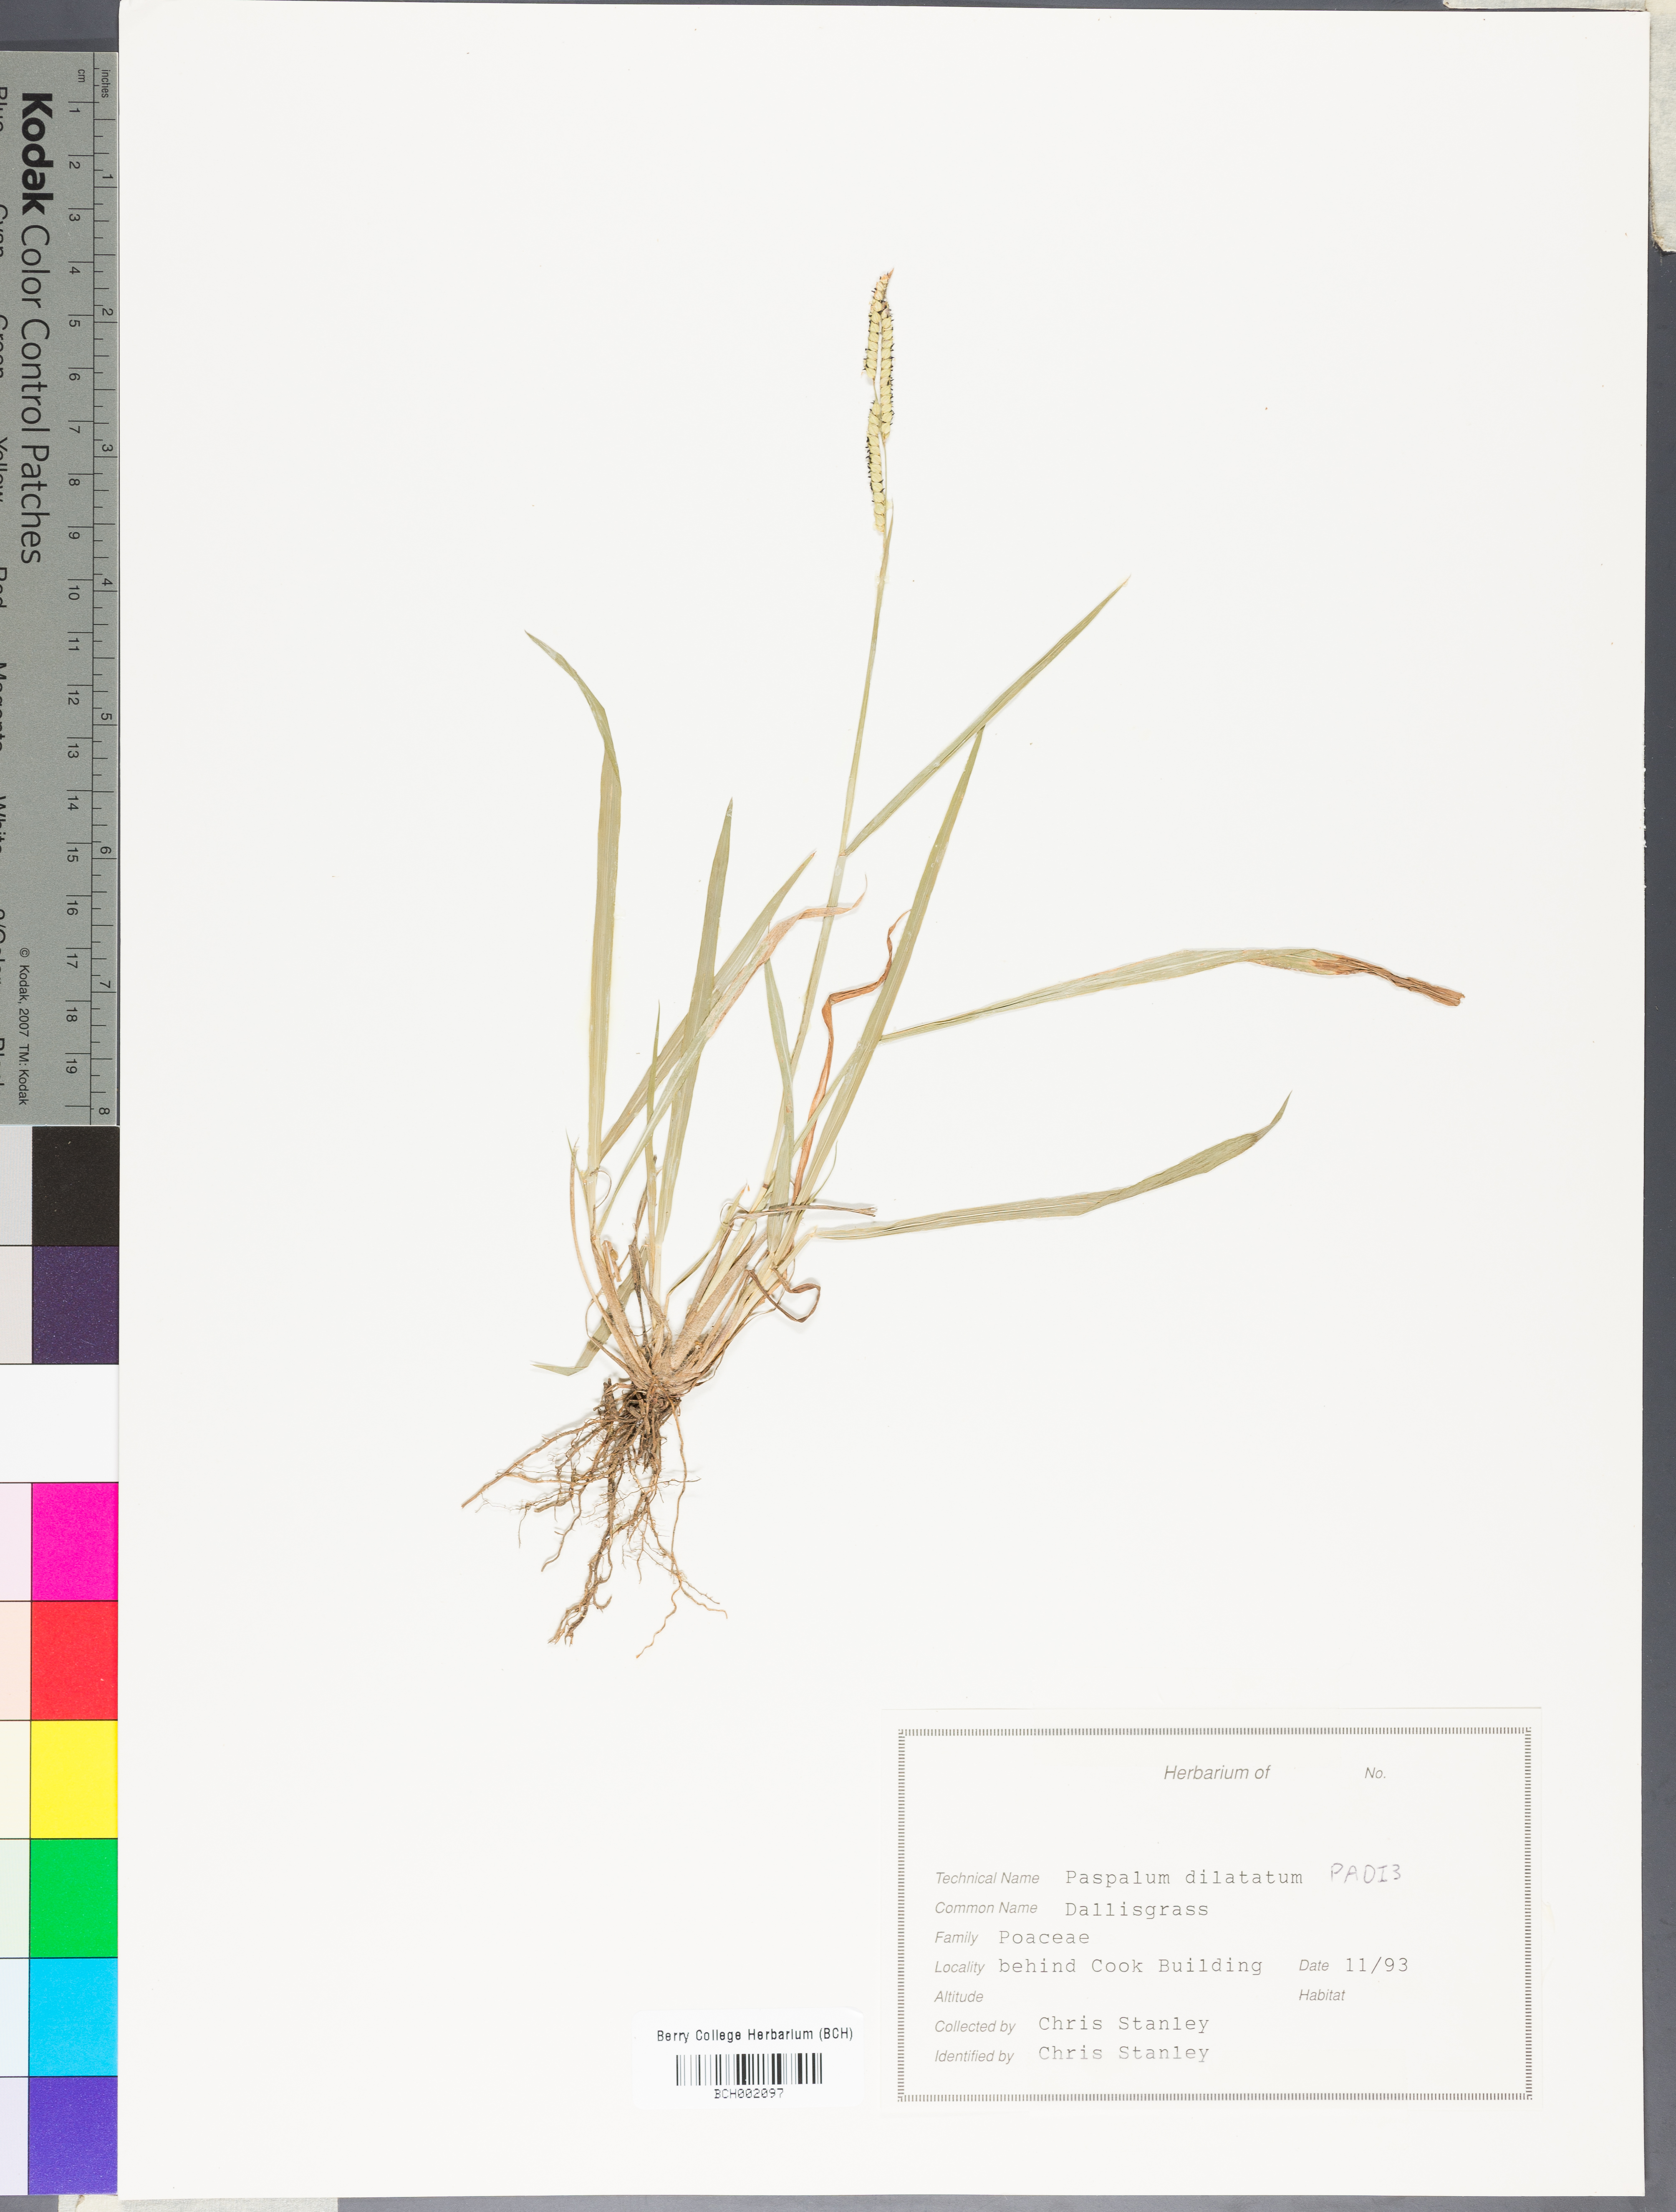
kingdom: Plantae
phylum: Tracheophyta
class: Liliopsida
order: Poales
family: Poaceae
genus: Paspalum
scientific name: Paspalum dilatatum
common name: Dallisgrass
